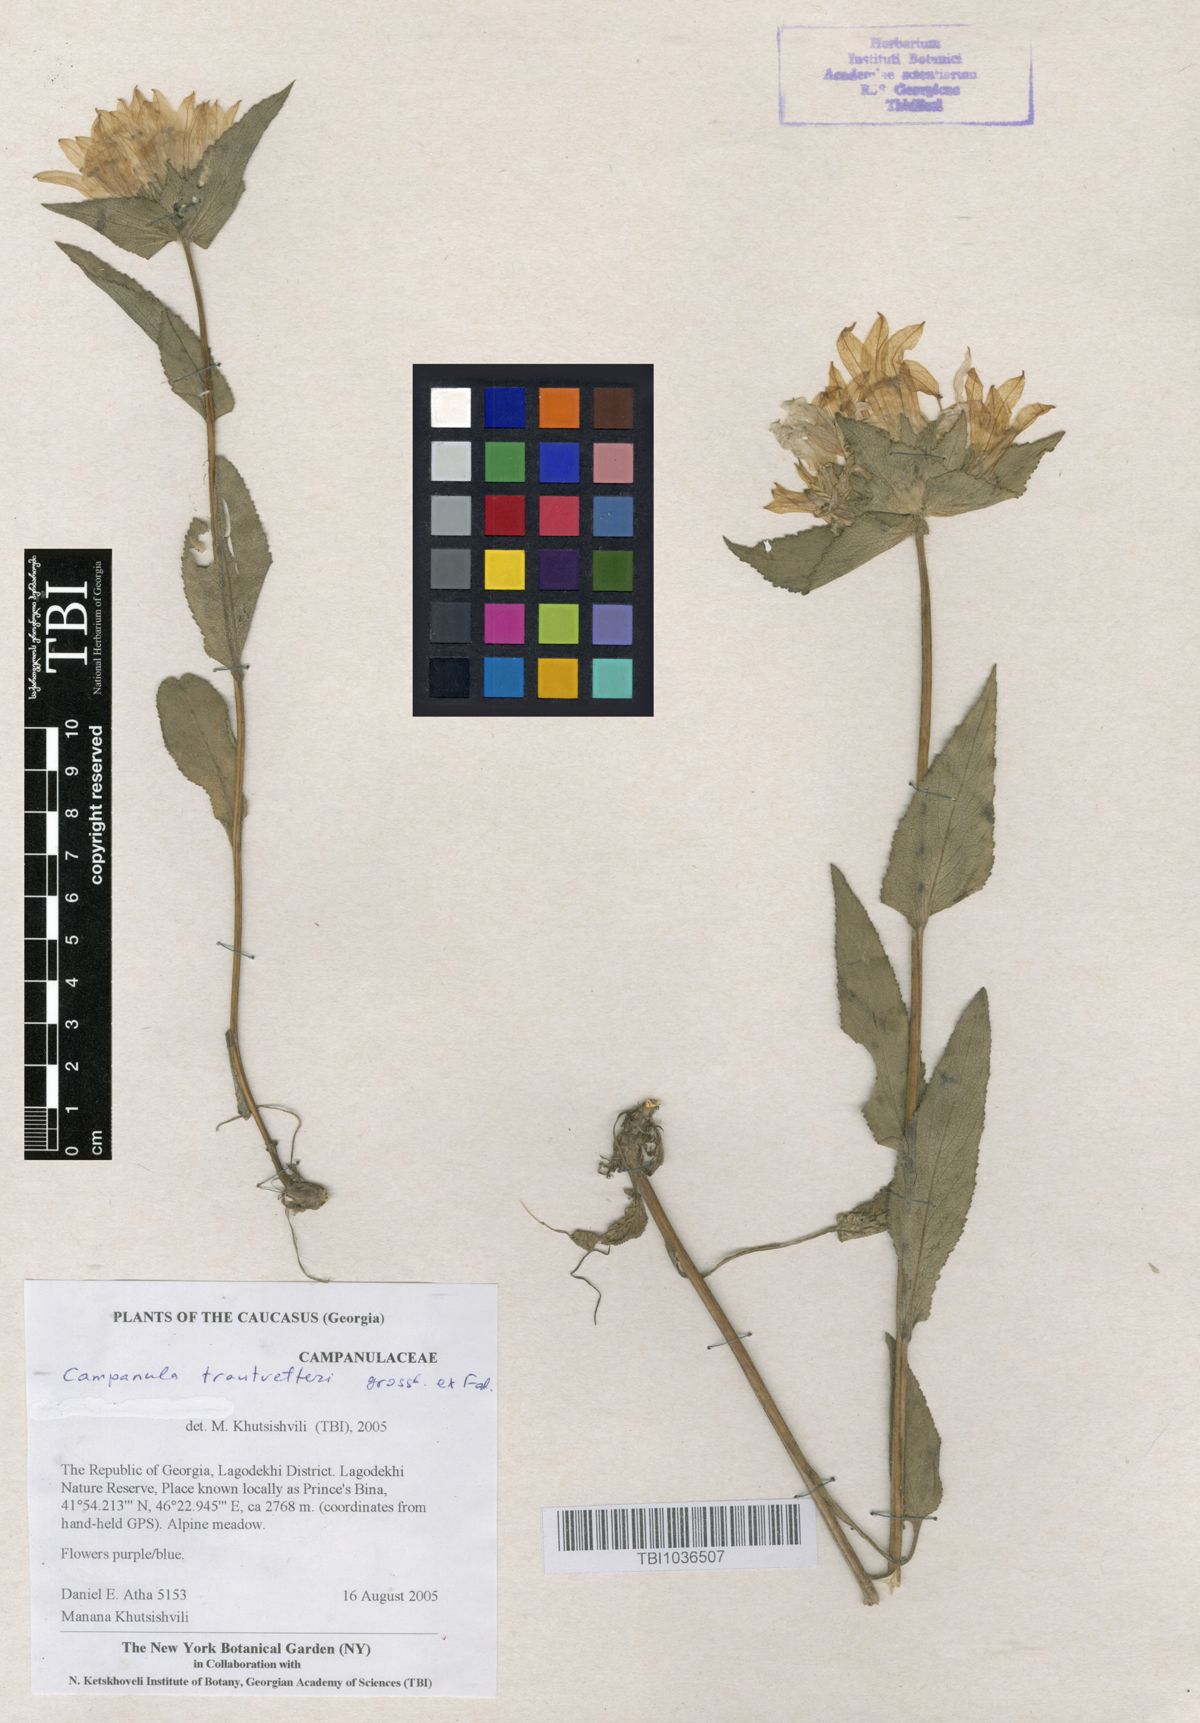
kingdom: Plantae
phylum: Tracheophyta
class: Magnoliopsida
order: Asterales
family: Campanulaceae
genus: Campanula
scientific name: Campanula glomerata
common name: Clustered bellflower
